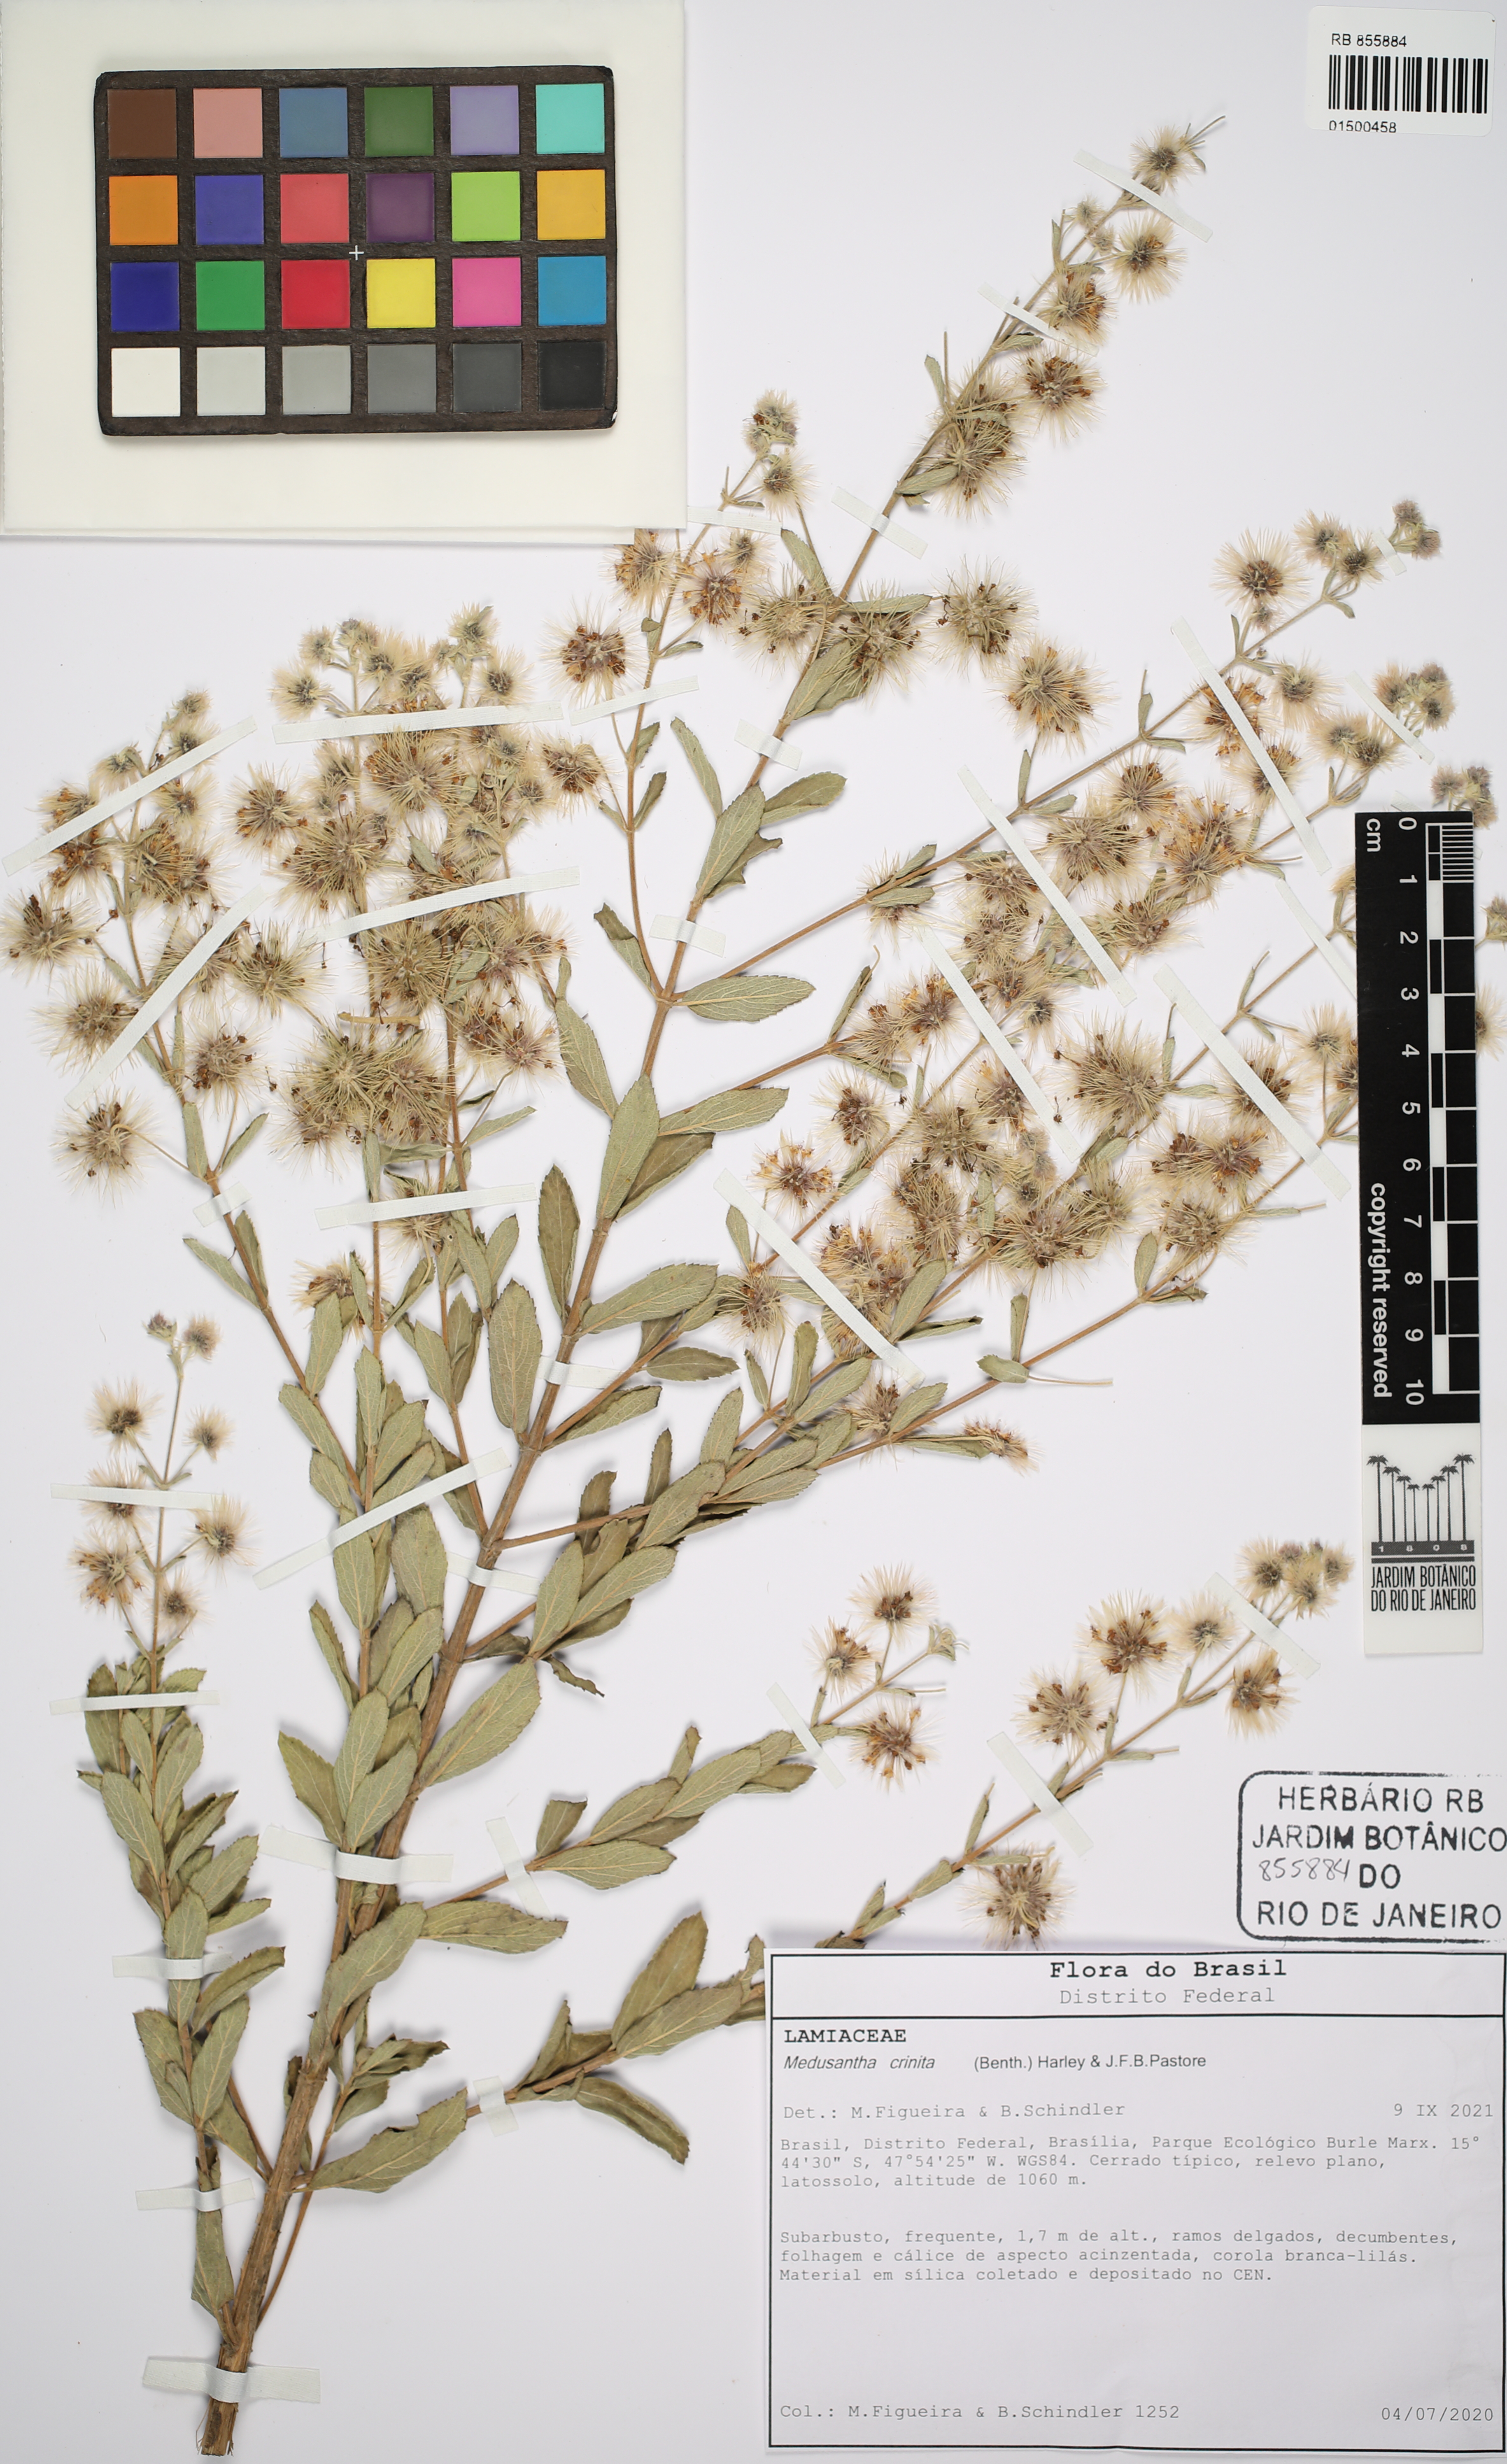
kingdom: Plantae
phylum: Tracheophyta
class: Magnoliopsida
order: Lamiales
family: Lamiaceae
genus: Medusantha
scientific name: Medusantha crinita
